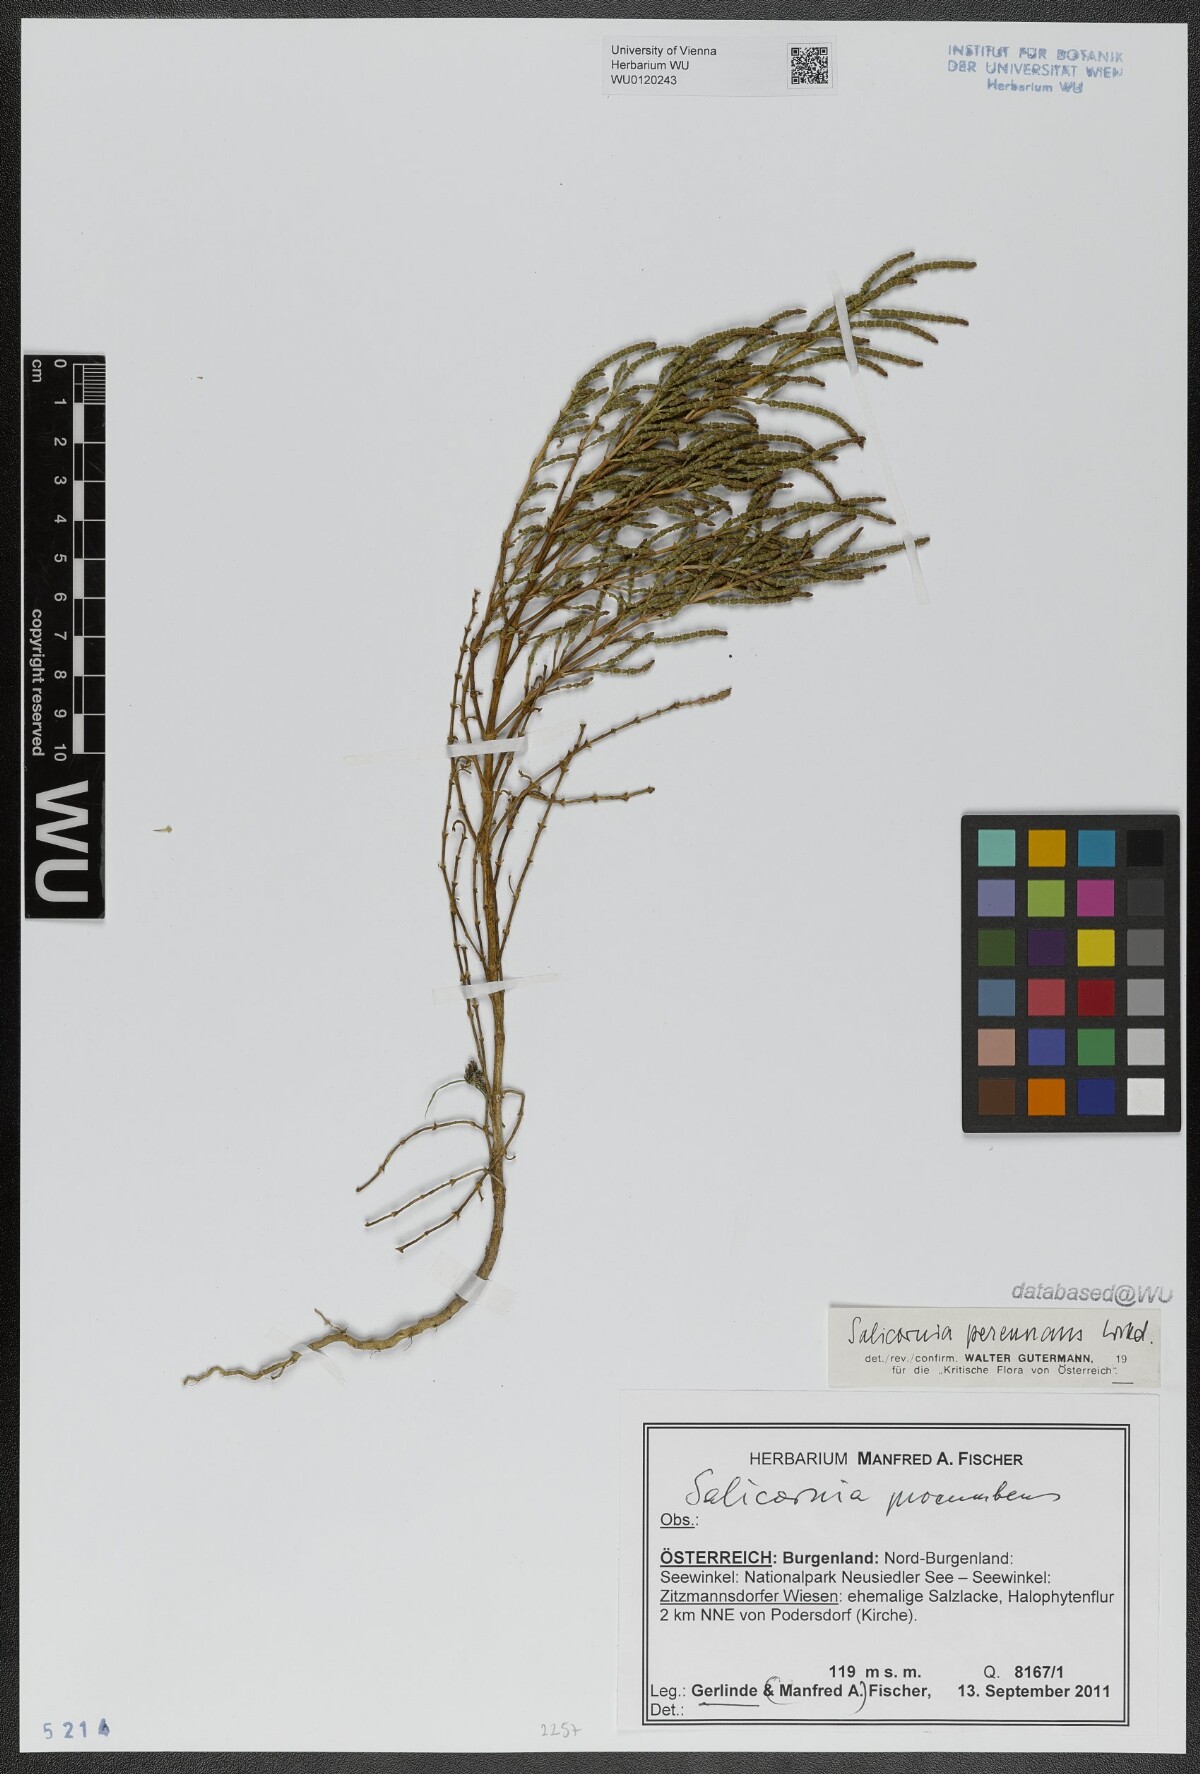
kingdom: Plantae
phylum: Tracheophyta
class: Magnoliopsida
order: Caryophyllales
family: Amaranthaceae
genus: Salicornia
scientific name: Salicornia perennans
